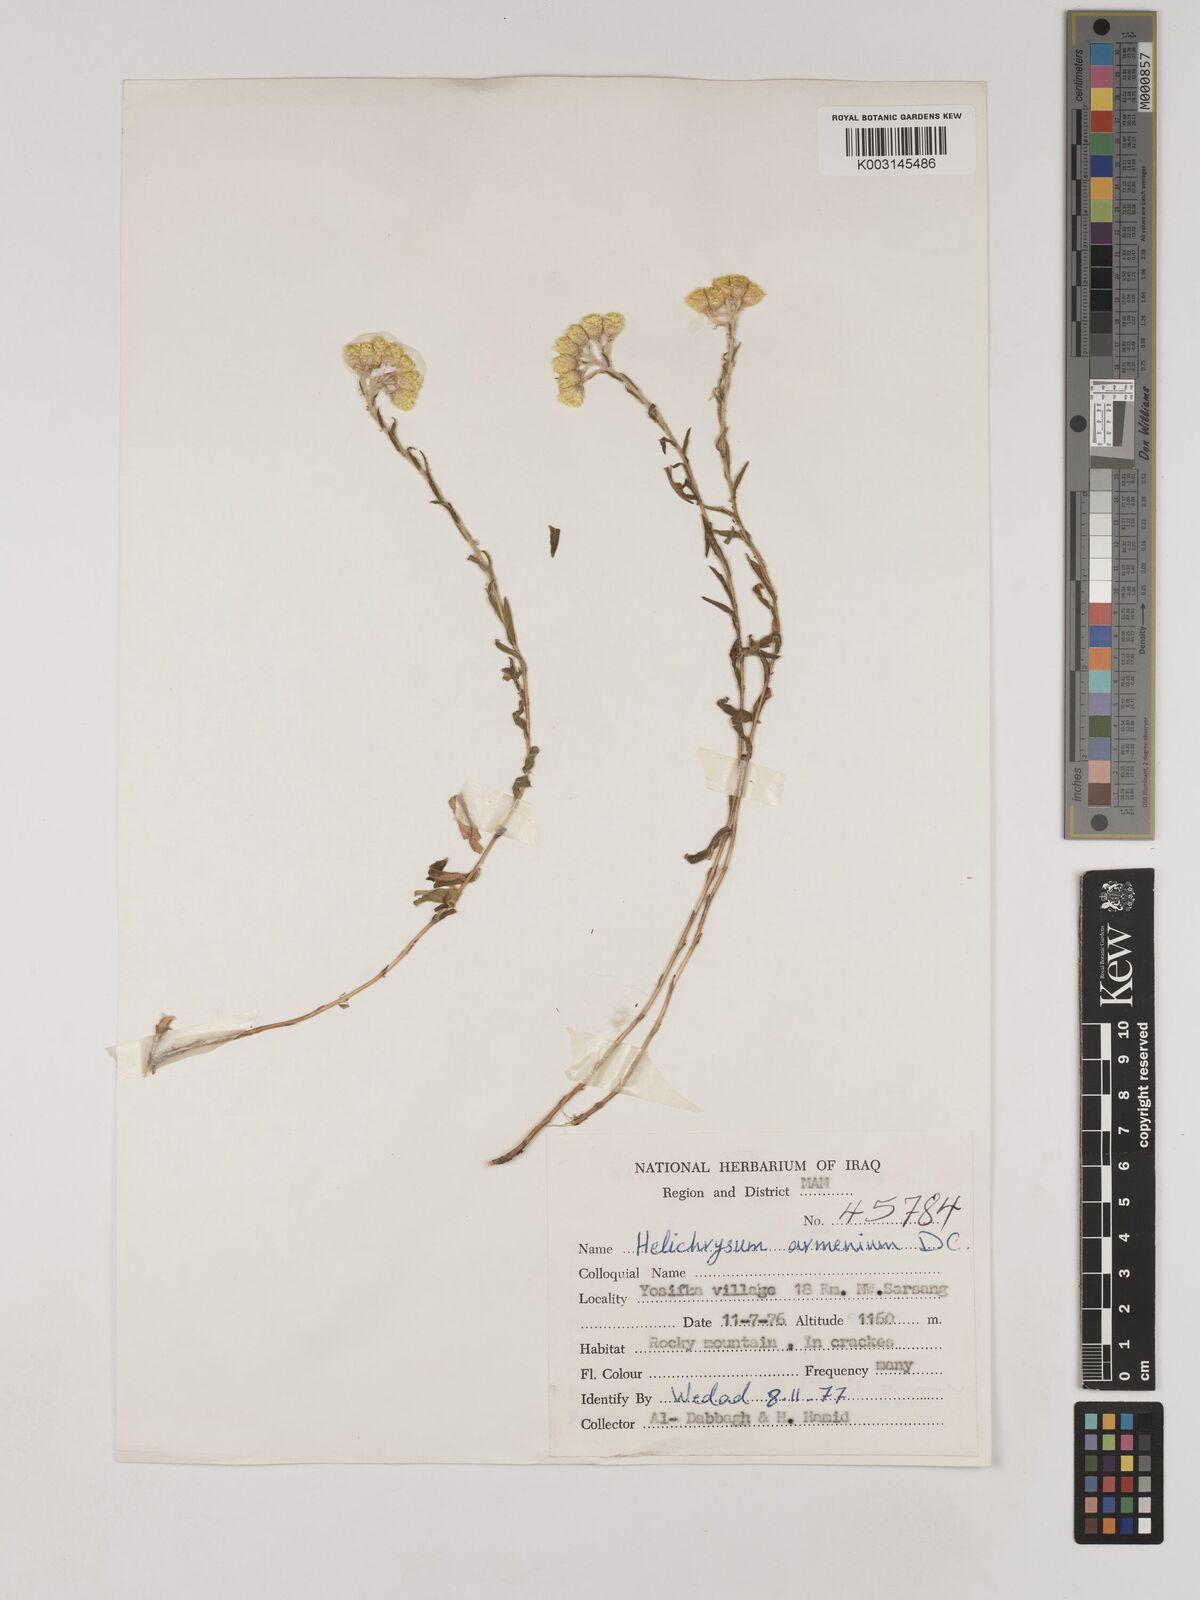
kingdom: Plantae
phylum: Tracheophyta
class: Magnoliopsida
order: Asterales
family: Asteraceae
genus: Helichrysum
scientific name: Helichrysum armenium
